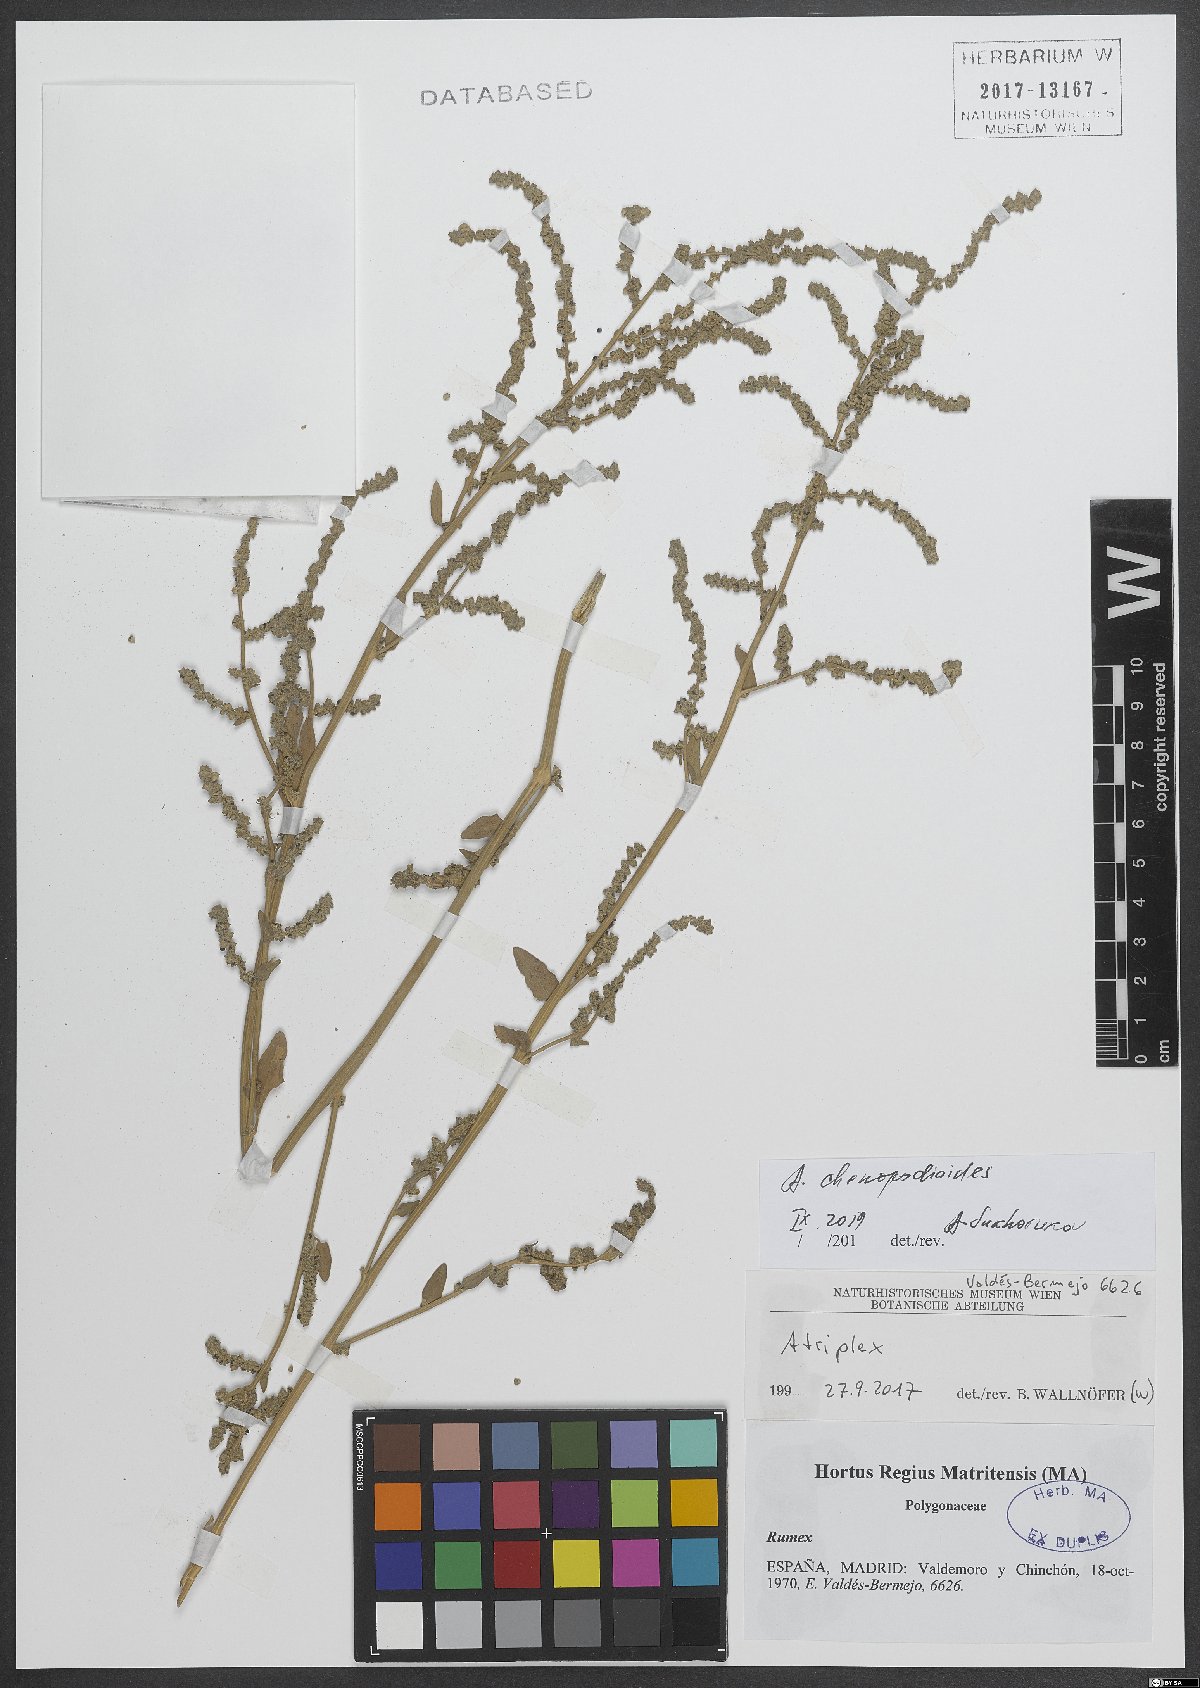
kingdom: Plantae
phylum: Tracheophyta
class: Magnoliopsida
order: Caryophyllales
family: Amaranthaceae
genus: Atriplex
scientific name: Atriplex chenopodioides
